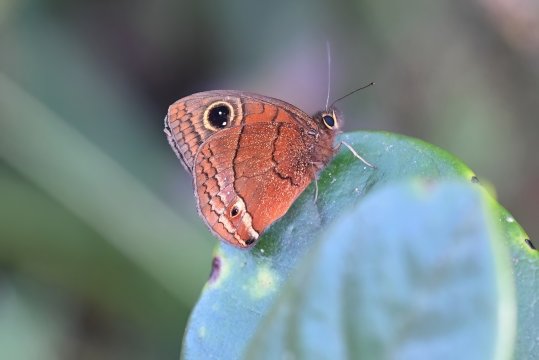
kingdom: Animalia
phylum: Arthropoda
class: Insecta
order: Lepidoptera
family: Nymphalidae
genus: Calisto
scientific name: Calisto nubila
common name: Puerto Rican Calisto
